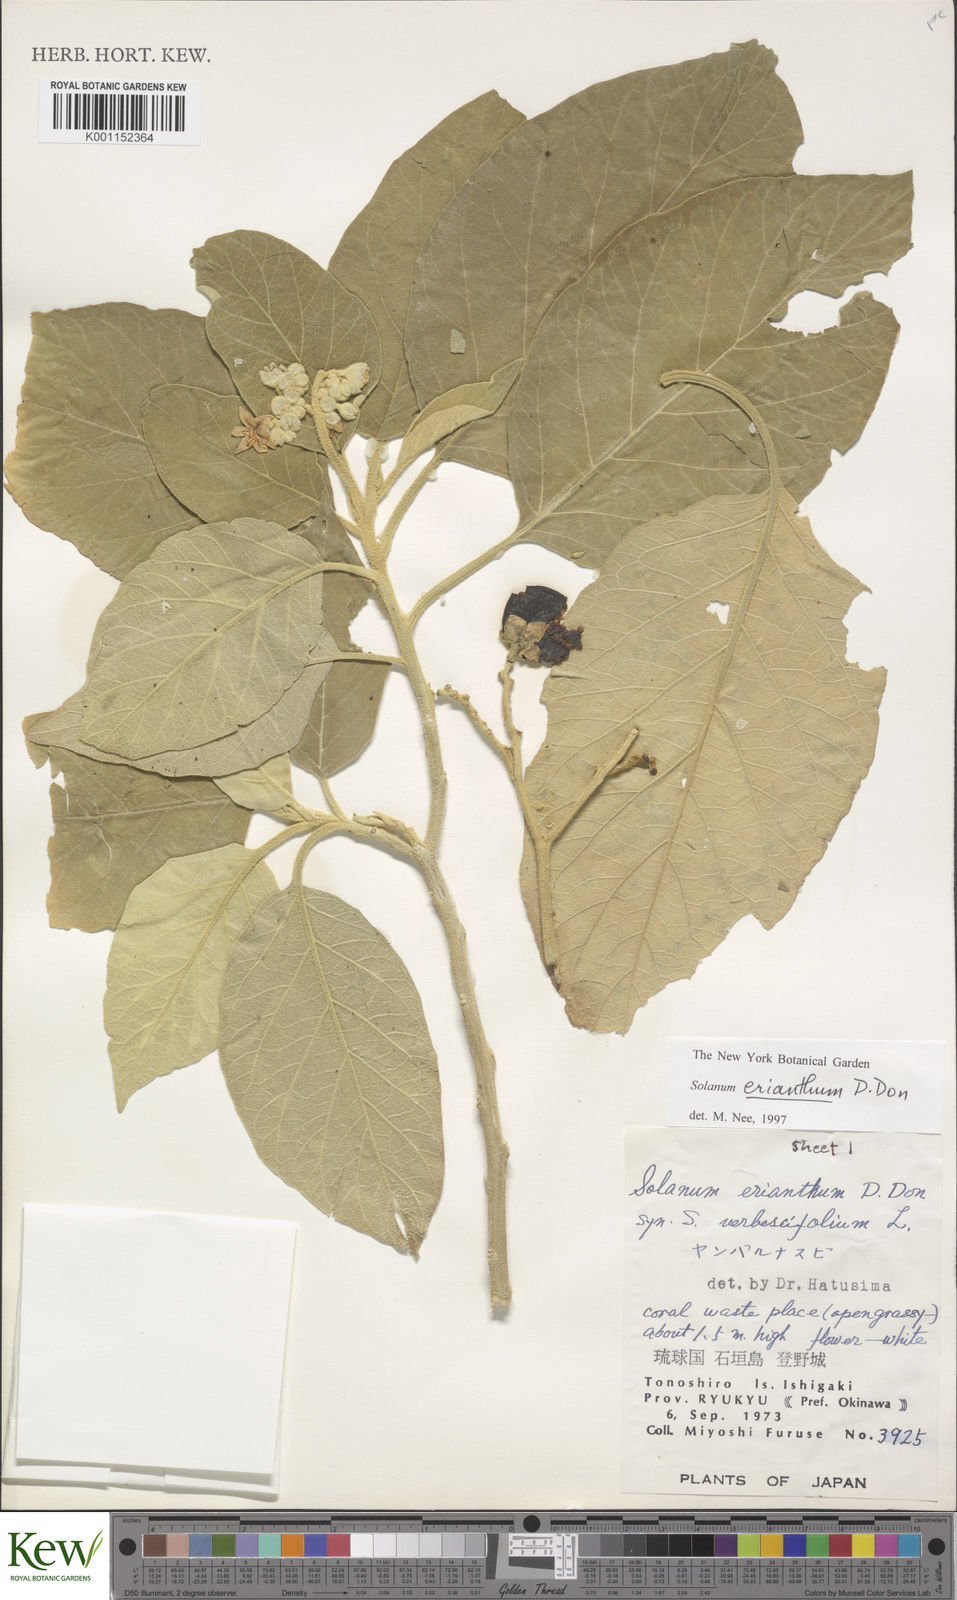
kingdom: Plantae
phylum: Tracheophyta
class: Magnoliopsida
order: Solanales
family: Solanaceae
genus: Solanum
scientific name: Solanum erianthum
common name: Tobacco-tree
